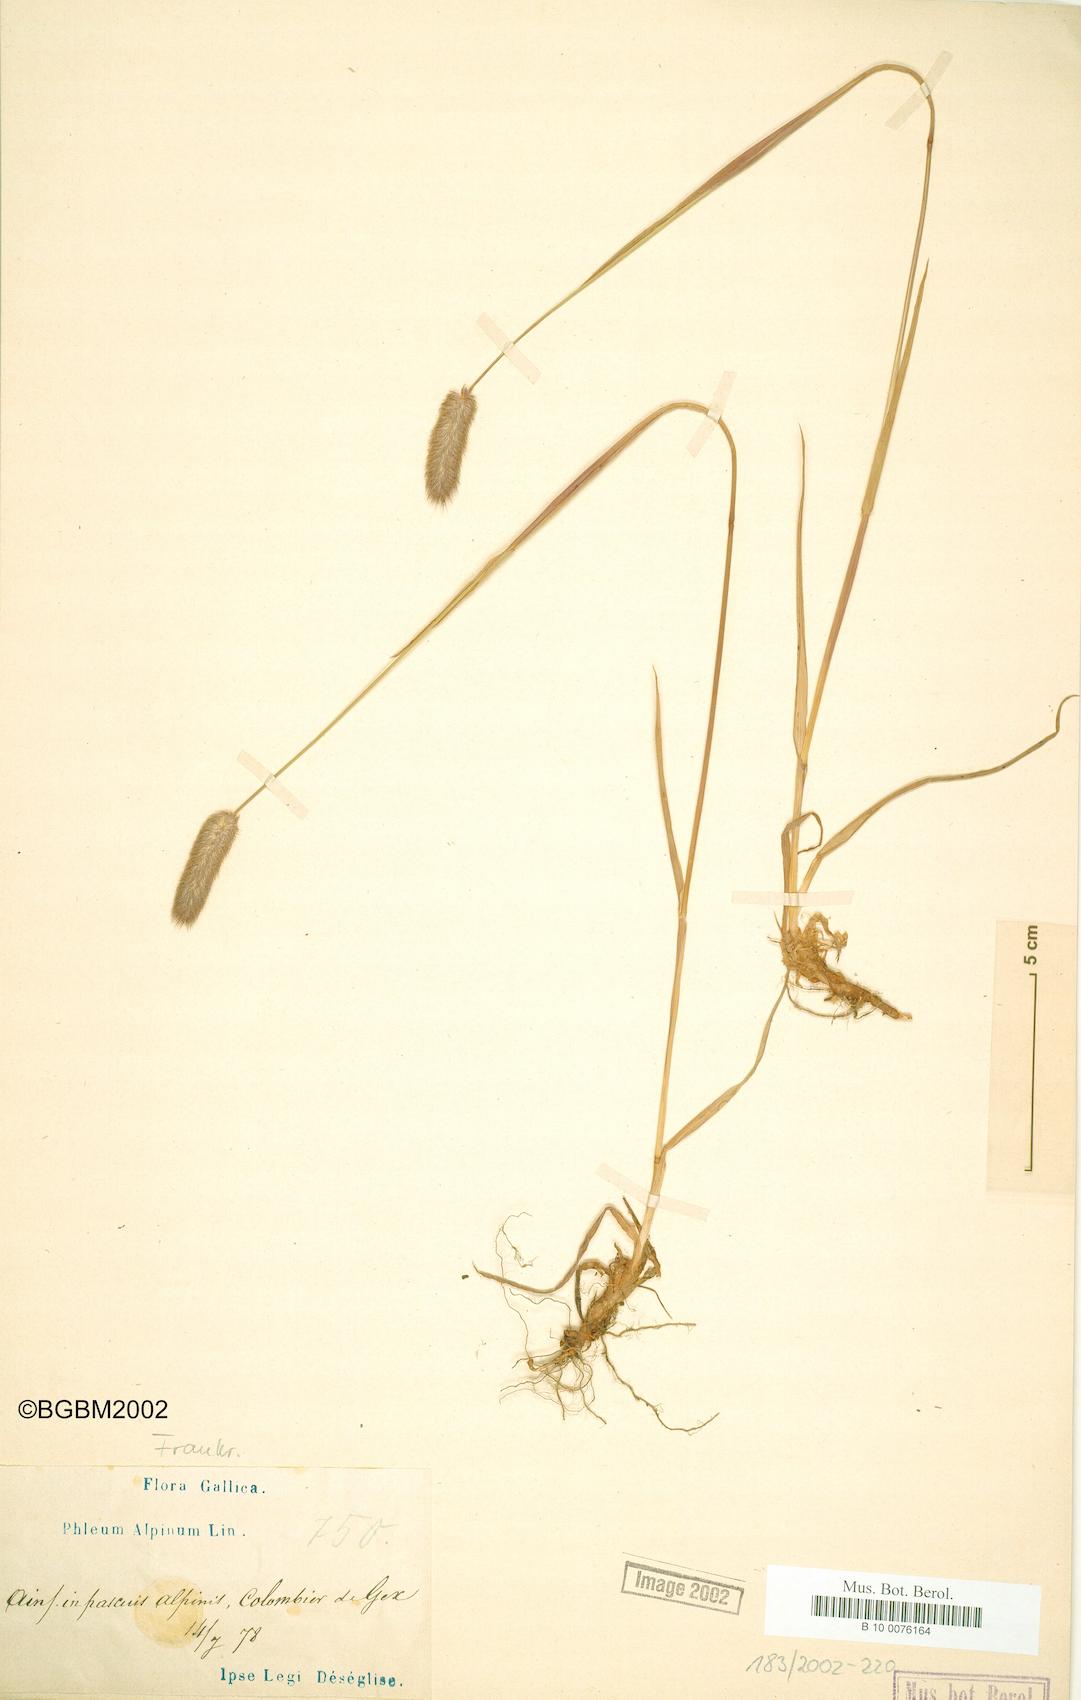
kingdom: Plantae
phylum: Tracheophyta
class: Liliopsida
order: Poales
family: Poaceae
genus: Phleum
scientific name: Phleum alpinum
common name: Alpine cat's-tail
